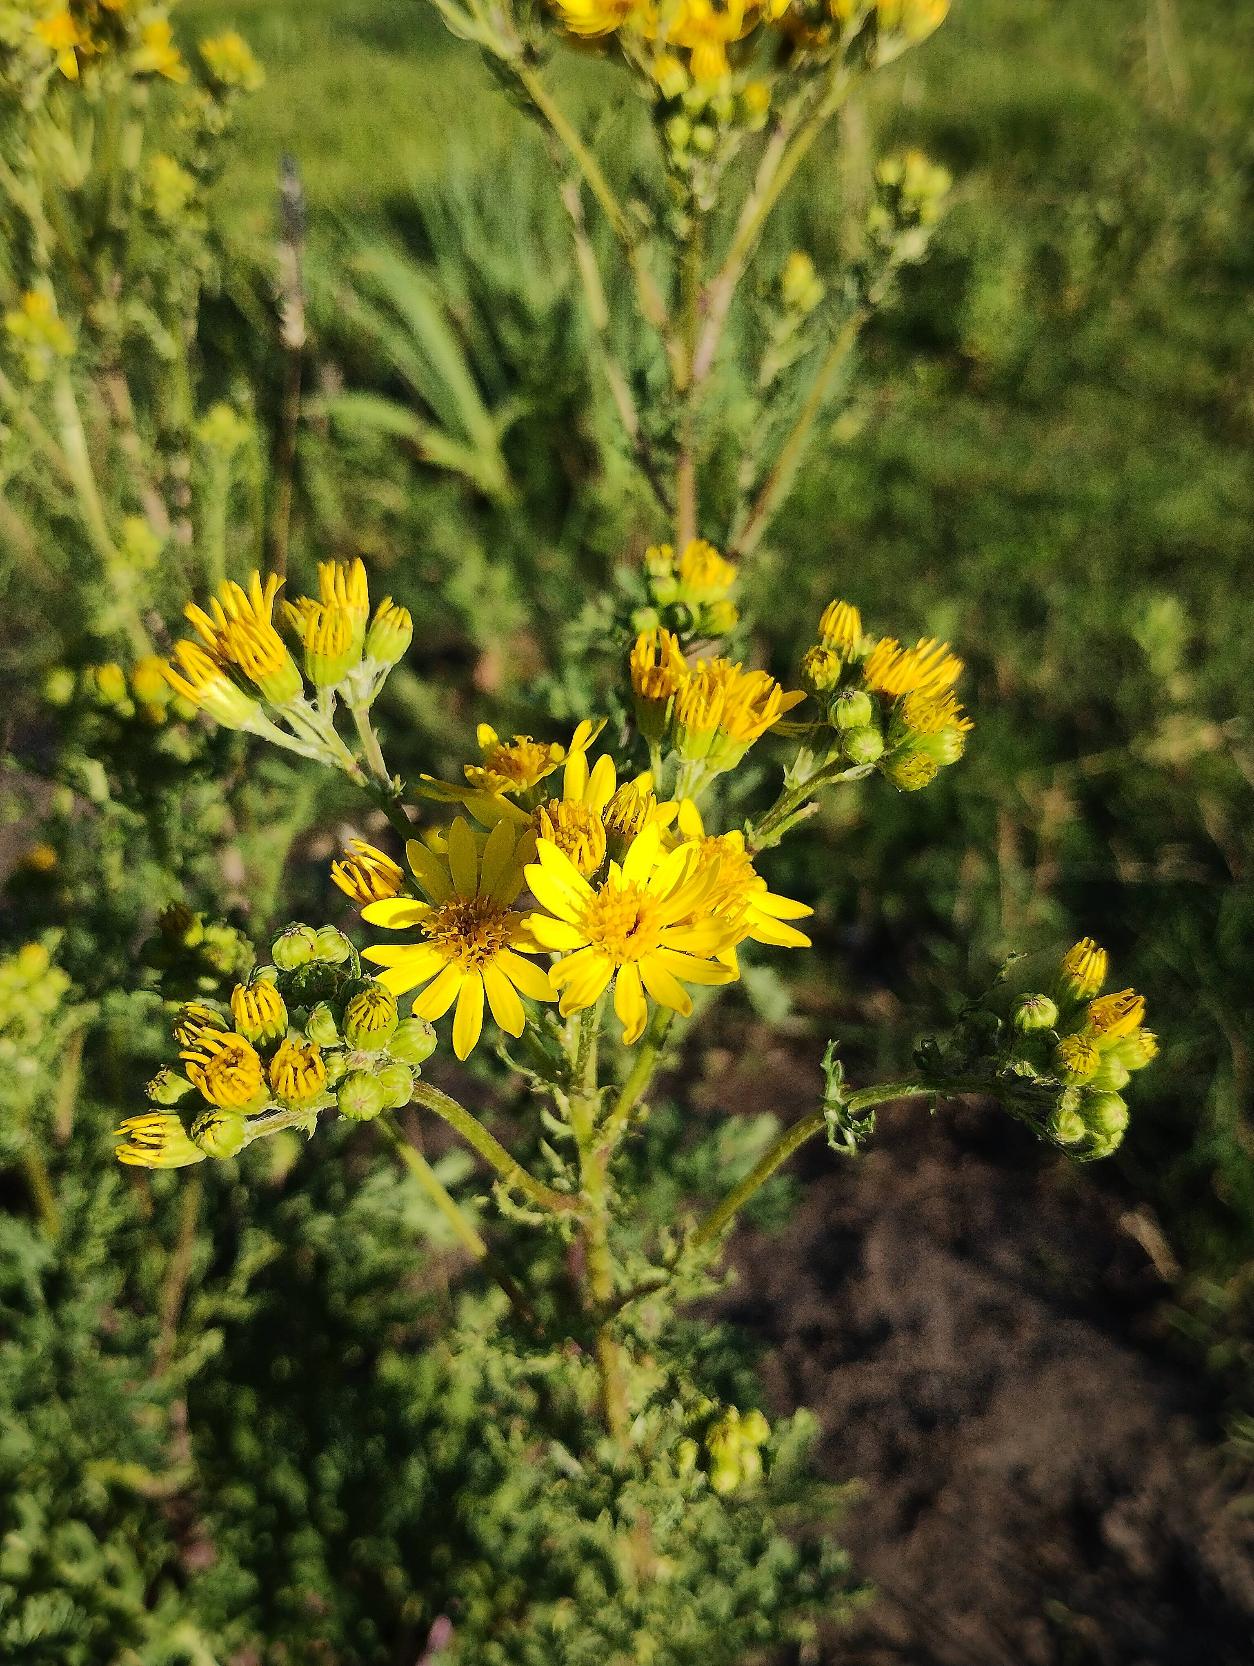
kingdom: Plantae
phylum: Tracheophyta
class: Magnoliopsida
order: Asterales
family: Asteraceae
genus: Jacobaea
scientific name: Jacobaea vulgaris
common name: Eng-brandbæger
